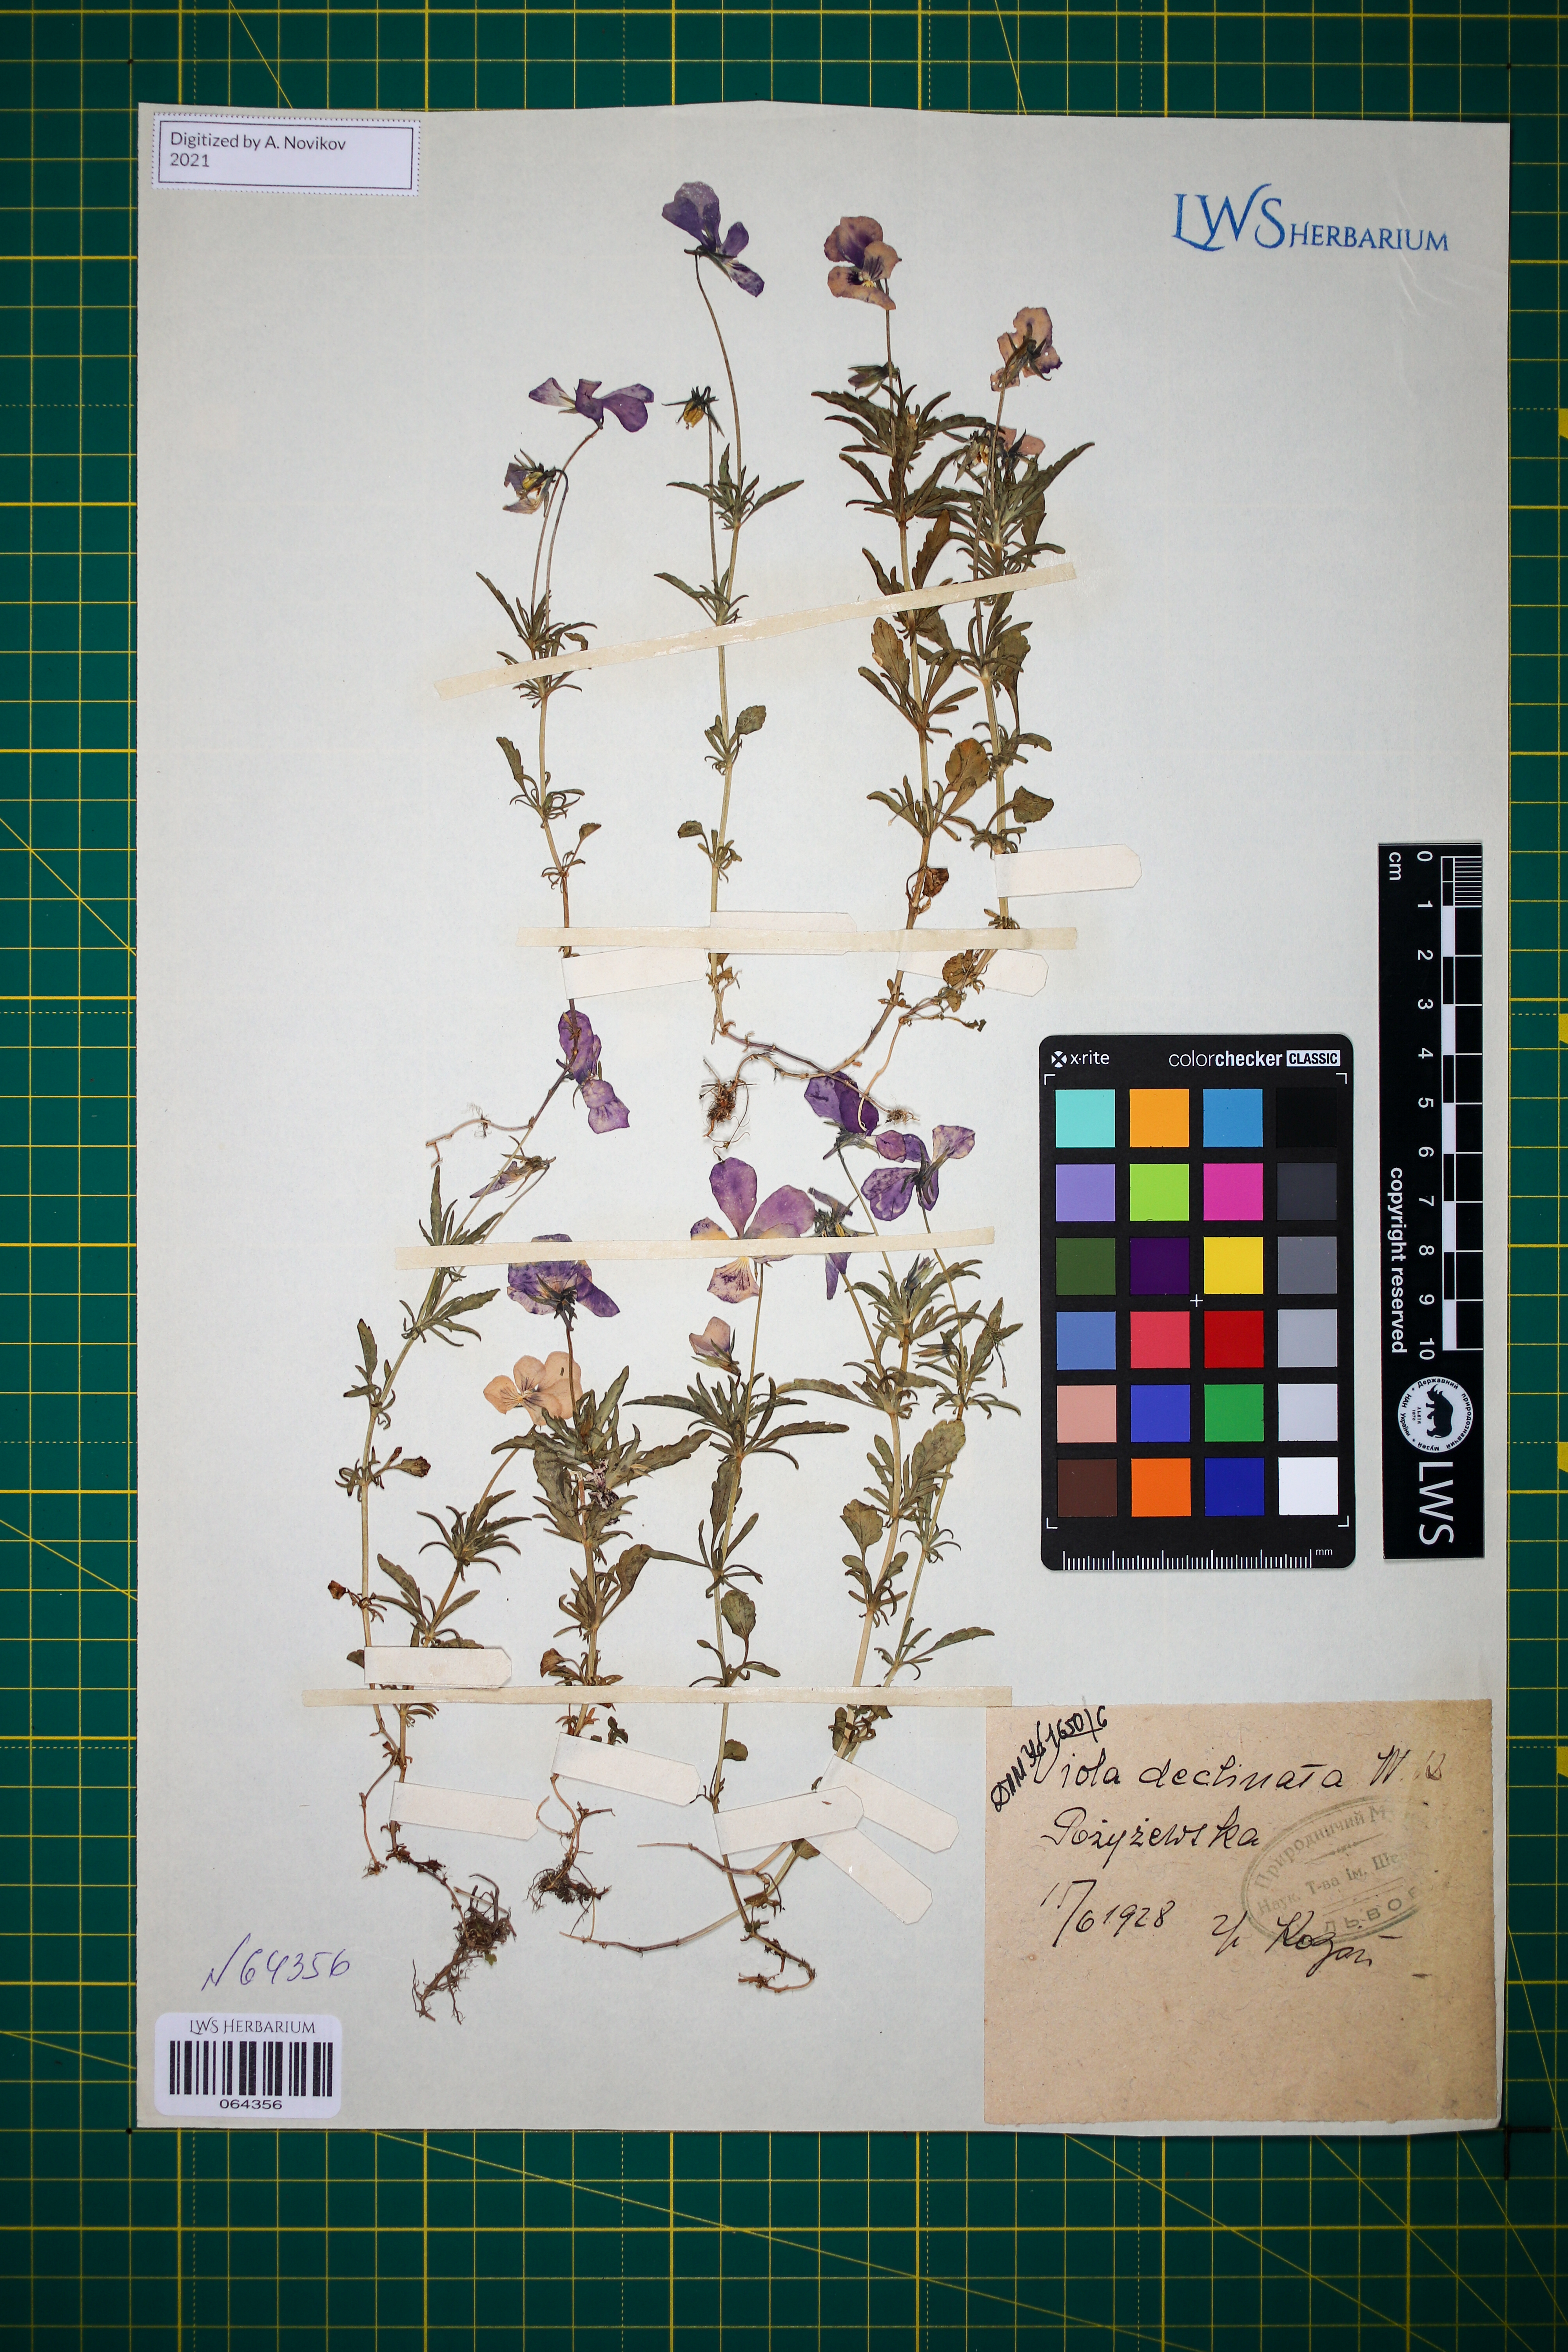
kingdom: Plantae
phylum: Tracheophyta
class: Magnoliopsida
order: Malpighiales
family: Violaceae
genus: Viola
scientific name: Viola declinata
